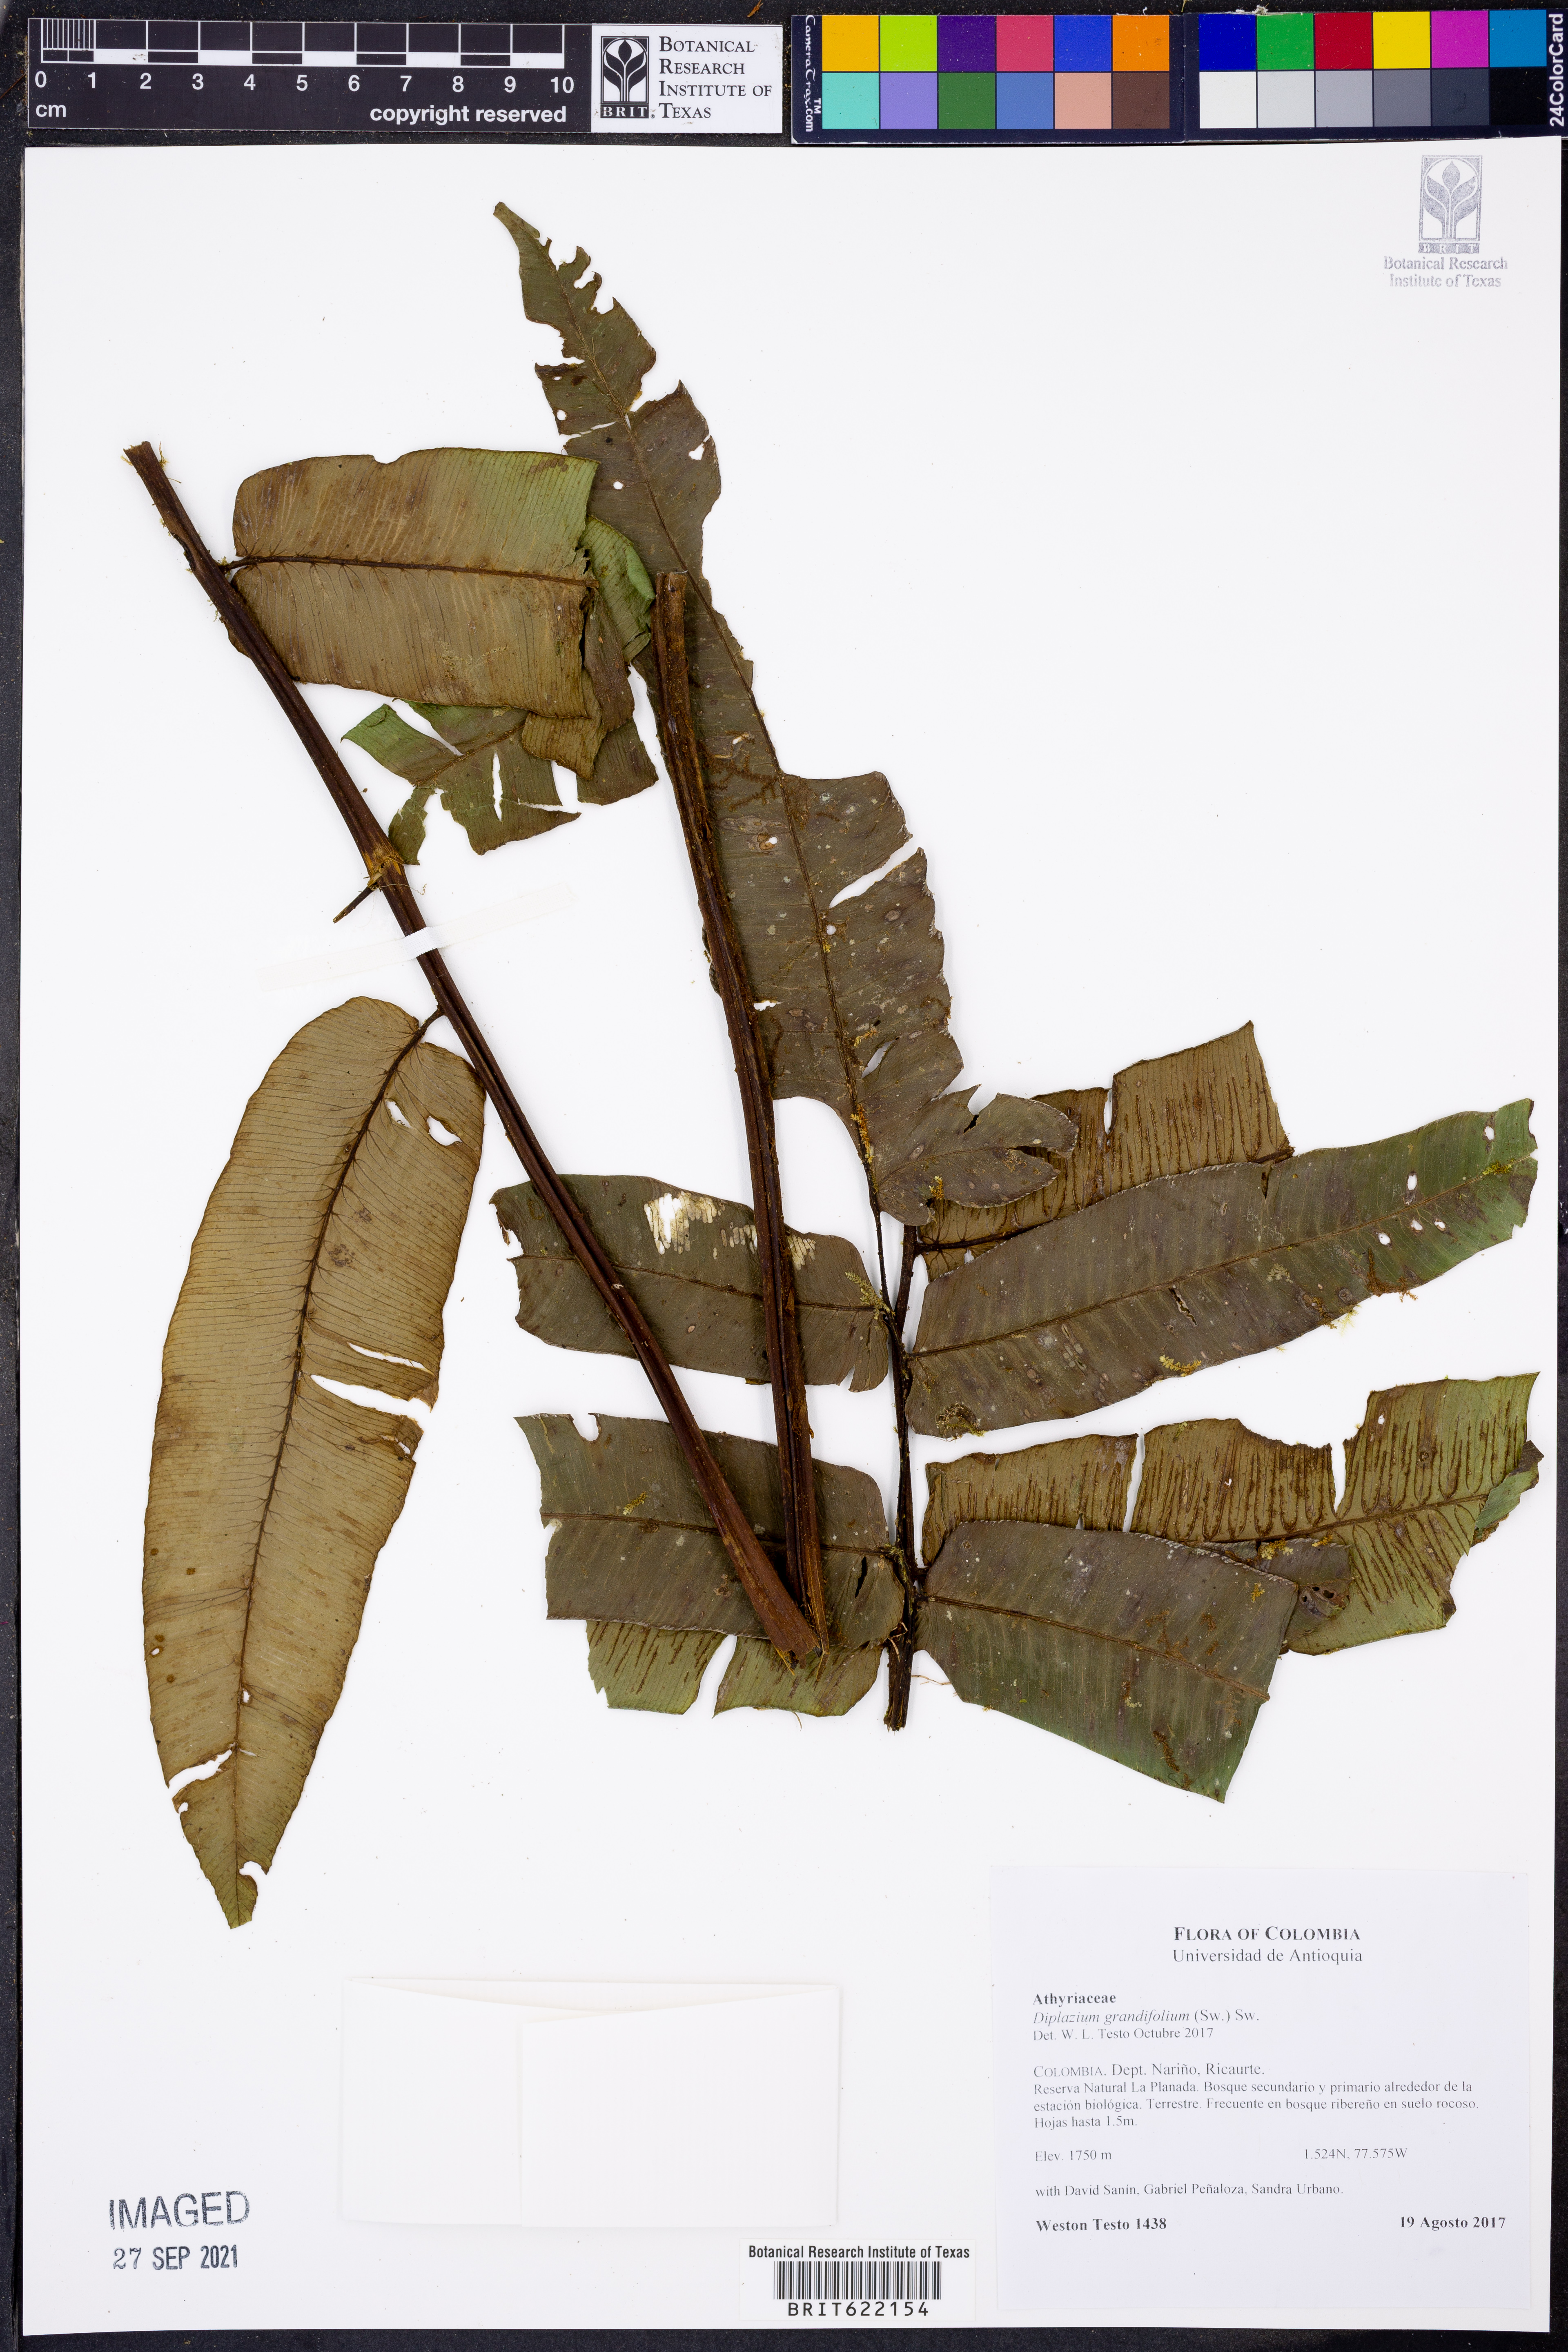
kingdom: Plantae
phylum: Tracheophyta
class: Polypodiopsida
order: Polypodiales
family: Athyriaceae
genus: Diplazium
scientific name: Diplazium grandifolium
